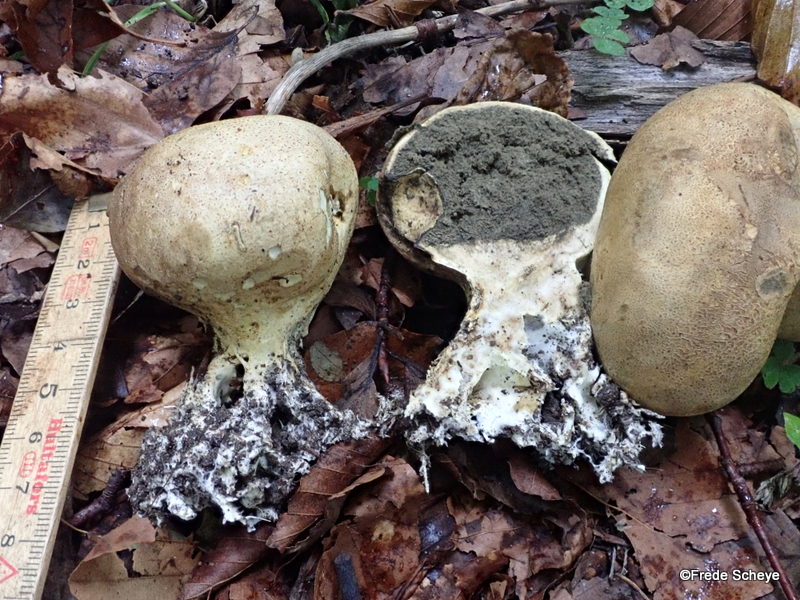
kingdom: Fungi
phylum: Basidiomycota
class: Agaricomycetes
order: Boletales
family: Sclerodermataceae
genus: Scleroderma
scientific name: Scleroderma bovista
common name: bovist-bruskbold
